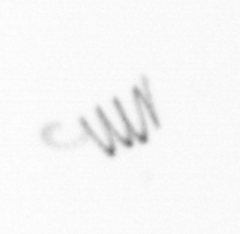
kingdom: Chromista
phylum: Ochrophyta
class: Bacillariophyceae
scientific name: Bacillariophyceae
